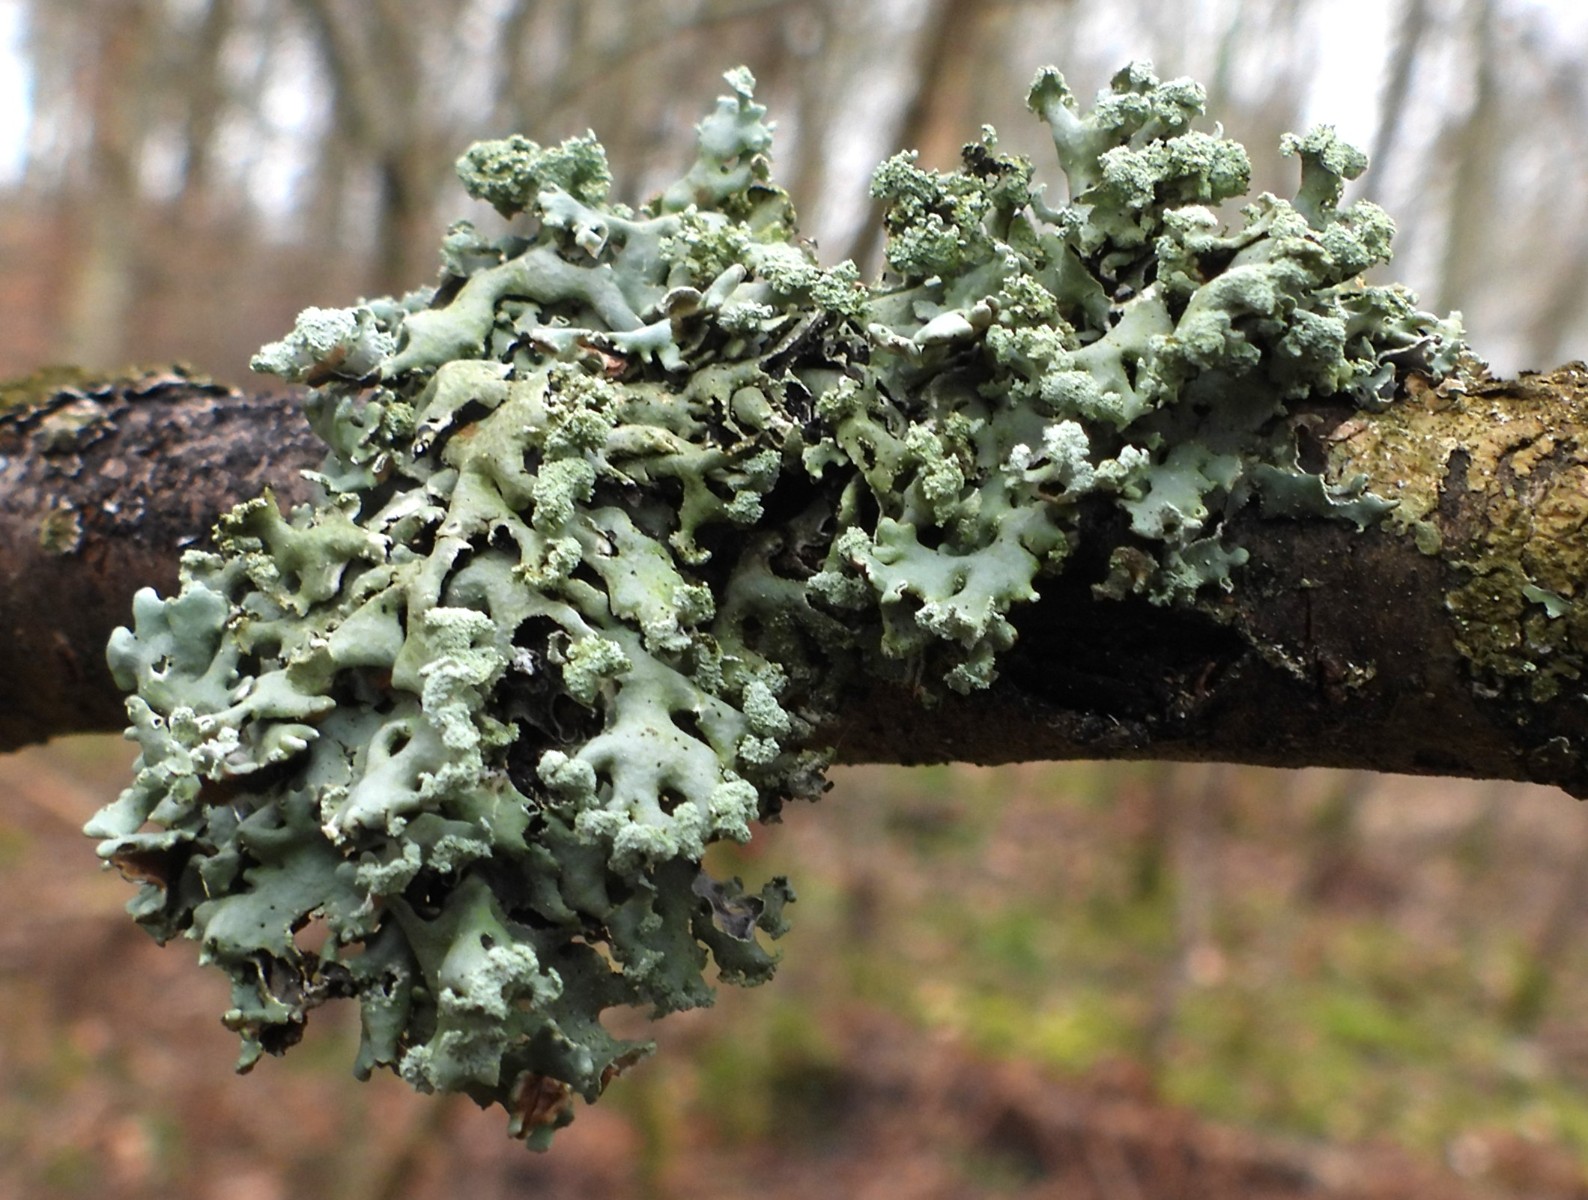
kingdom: Fungi
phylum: Ascomycota
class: Lecanoromycetes
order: Lecanorales
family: Parmeliaceae
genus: Hypogymnia
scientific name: Hypogymnia physodes
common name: almindelig kvistlav
